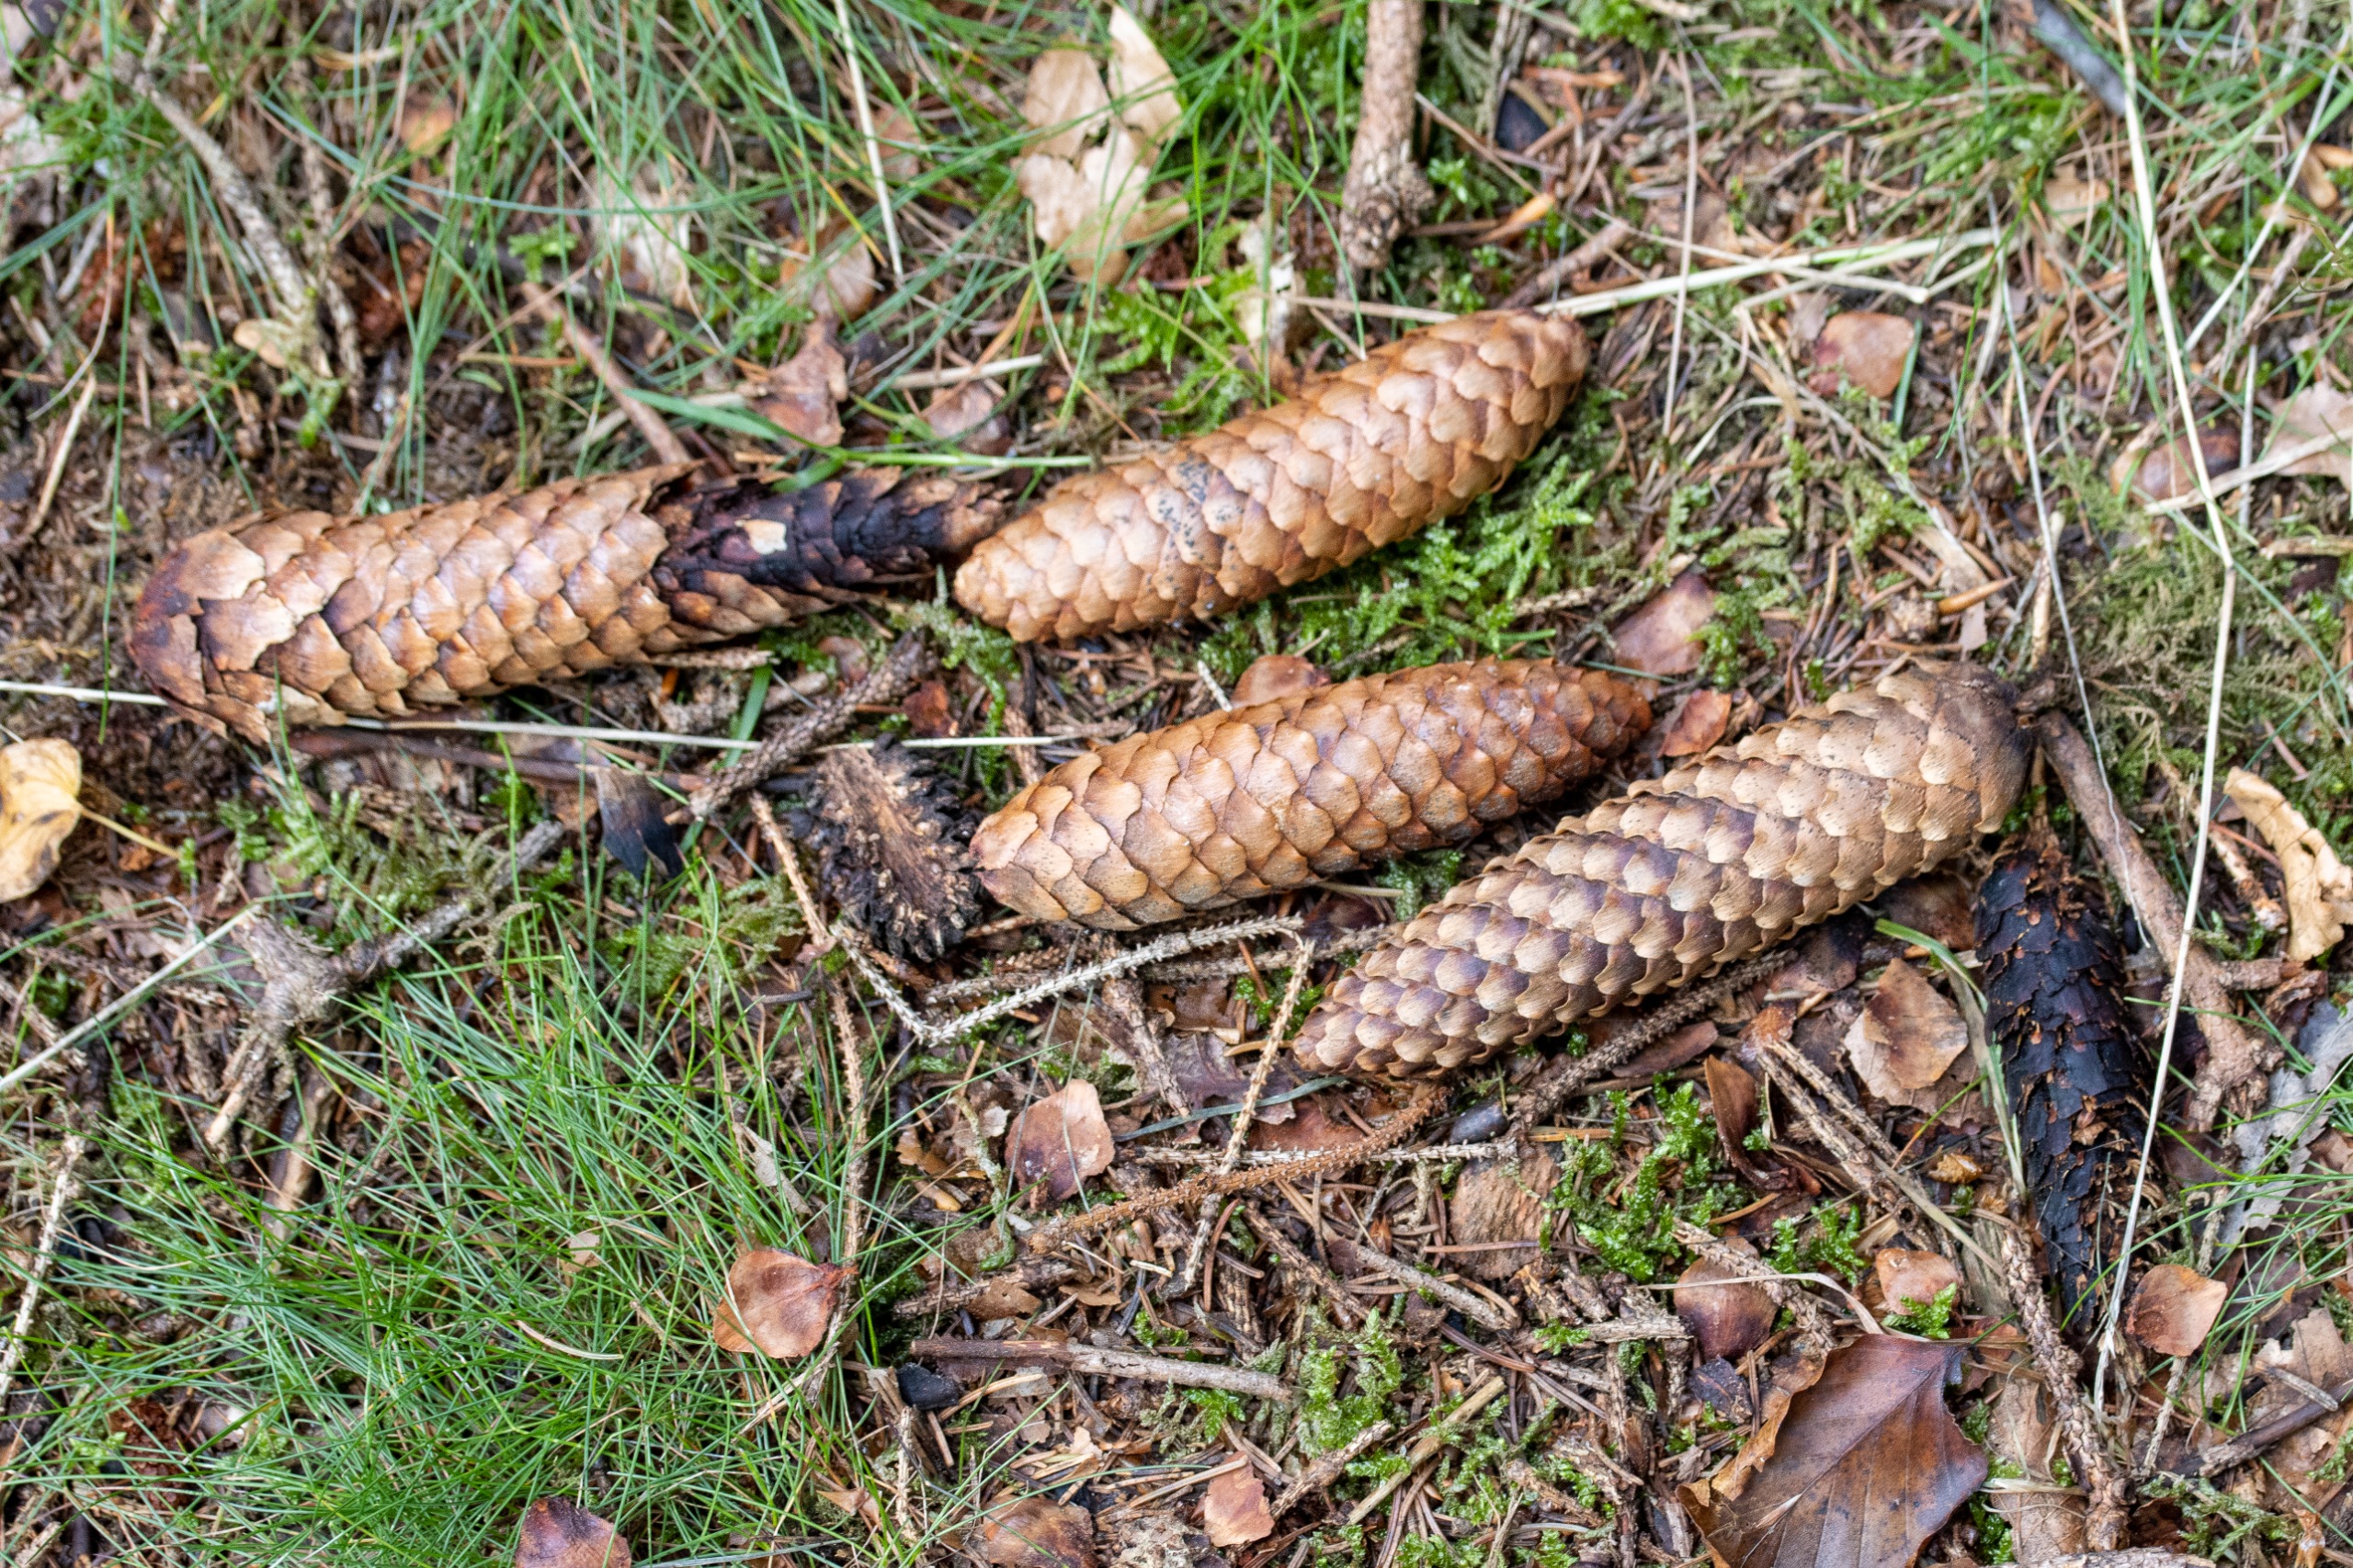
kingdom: Plantae
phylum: Tracheophyta
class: Pinopsida
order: Pinales
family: Pinaceae
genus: Picea
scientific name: Picea abies
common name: Rød-gran
